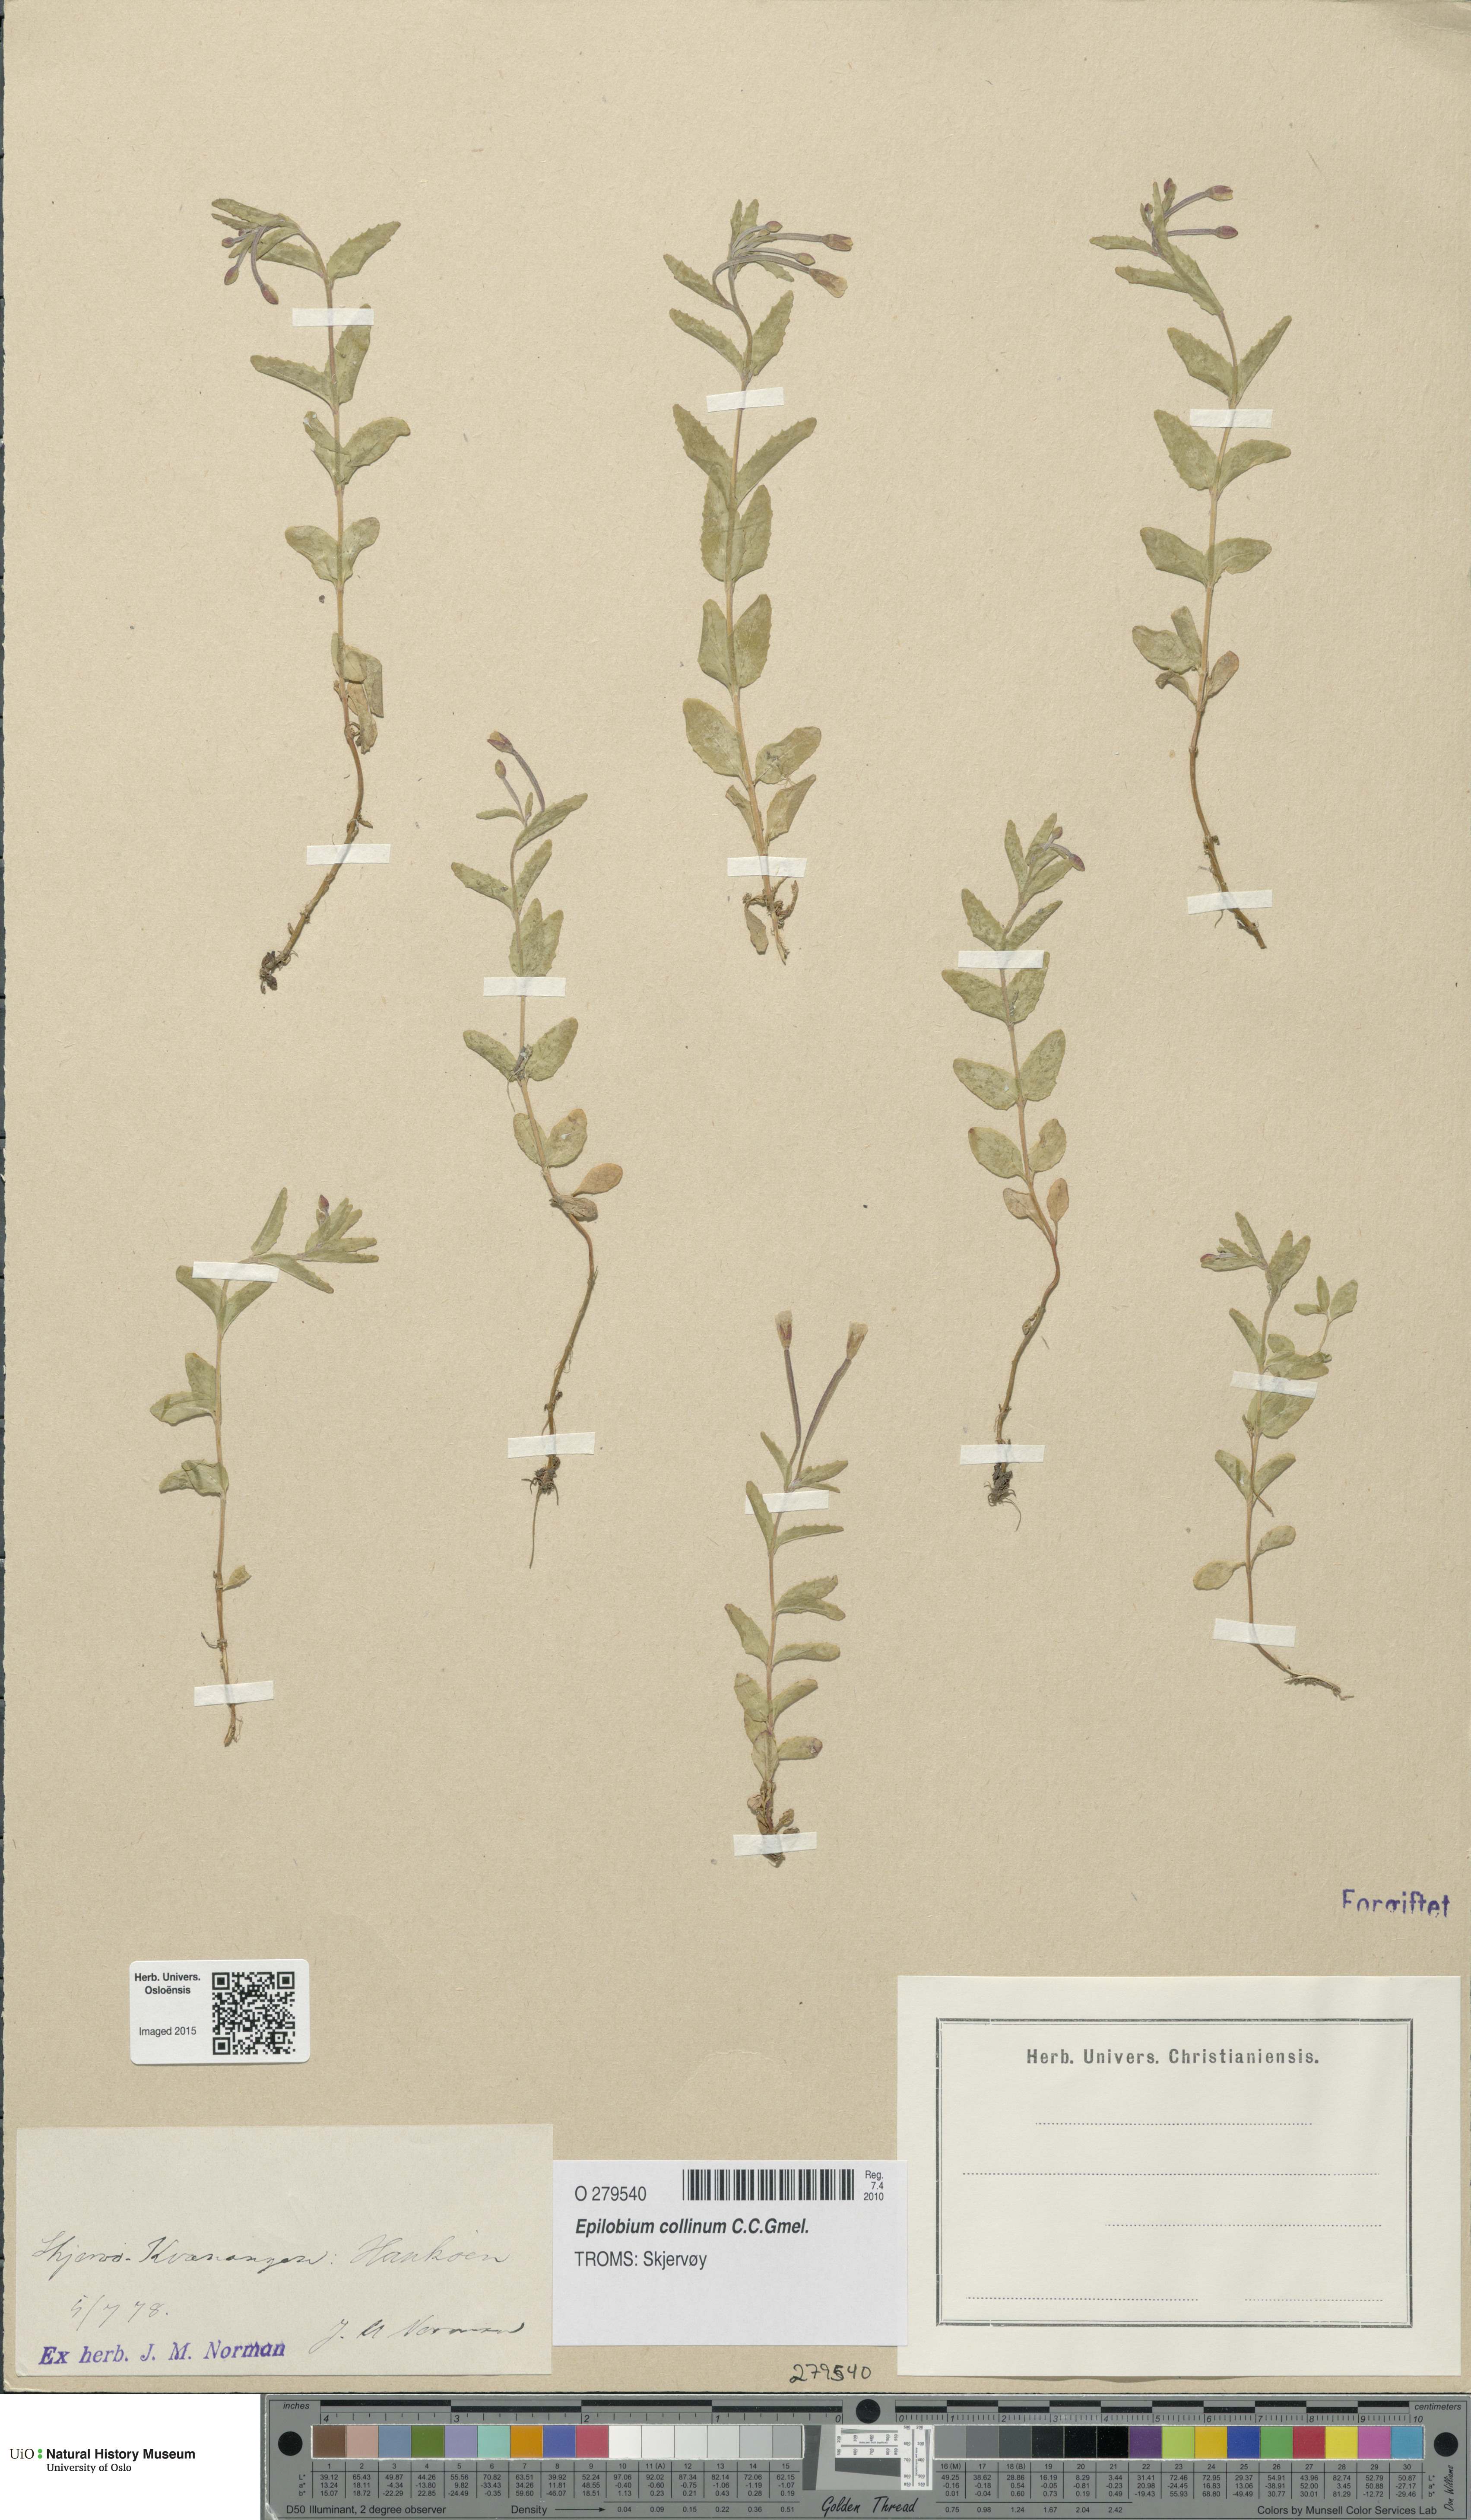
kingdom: Plantae
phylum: Tracheophyta
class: Magnoliopsida
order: Myrtales
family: Onagraceae
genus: Epilobium
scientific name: Epilobium collinum
